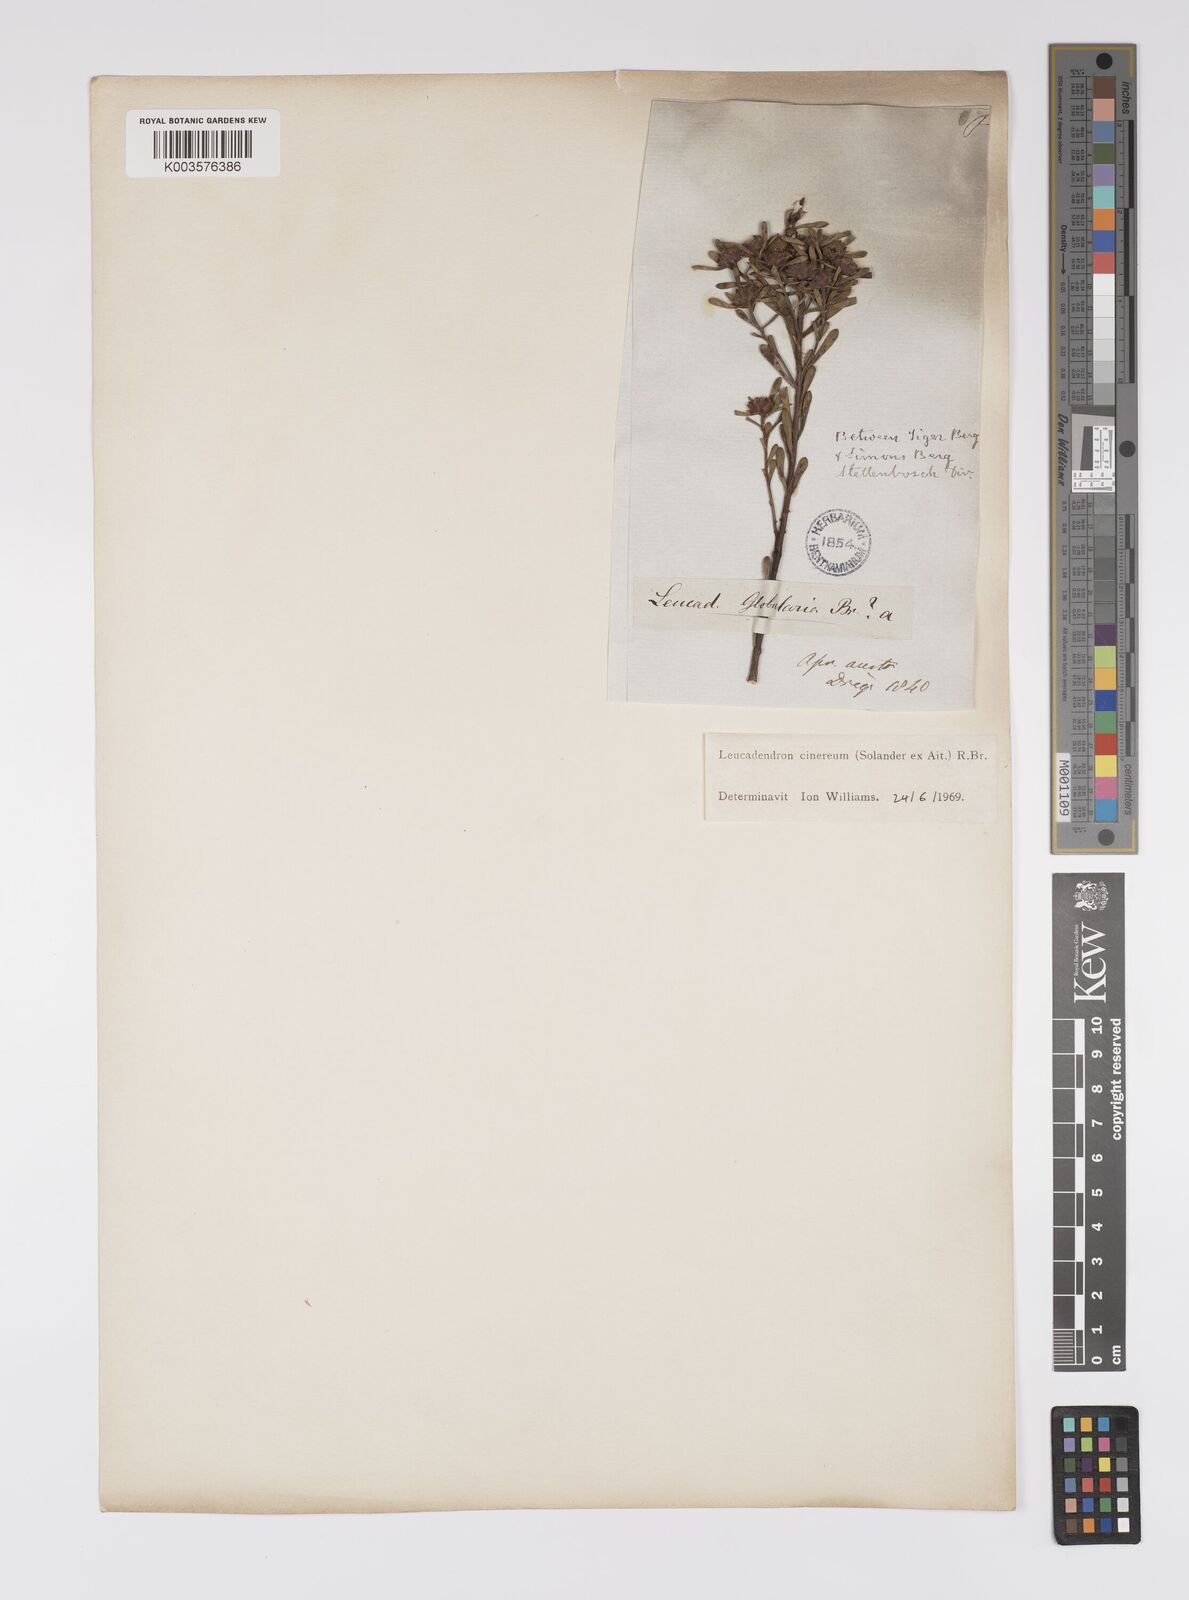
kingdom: Plantae
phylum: Tracheophyta
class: Magnoliopsida
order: Proteales
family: Proteaceae
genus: Leucadendron
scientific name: Leucadendron cinereum
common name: Scraggly conebush
